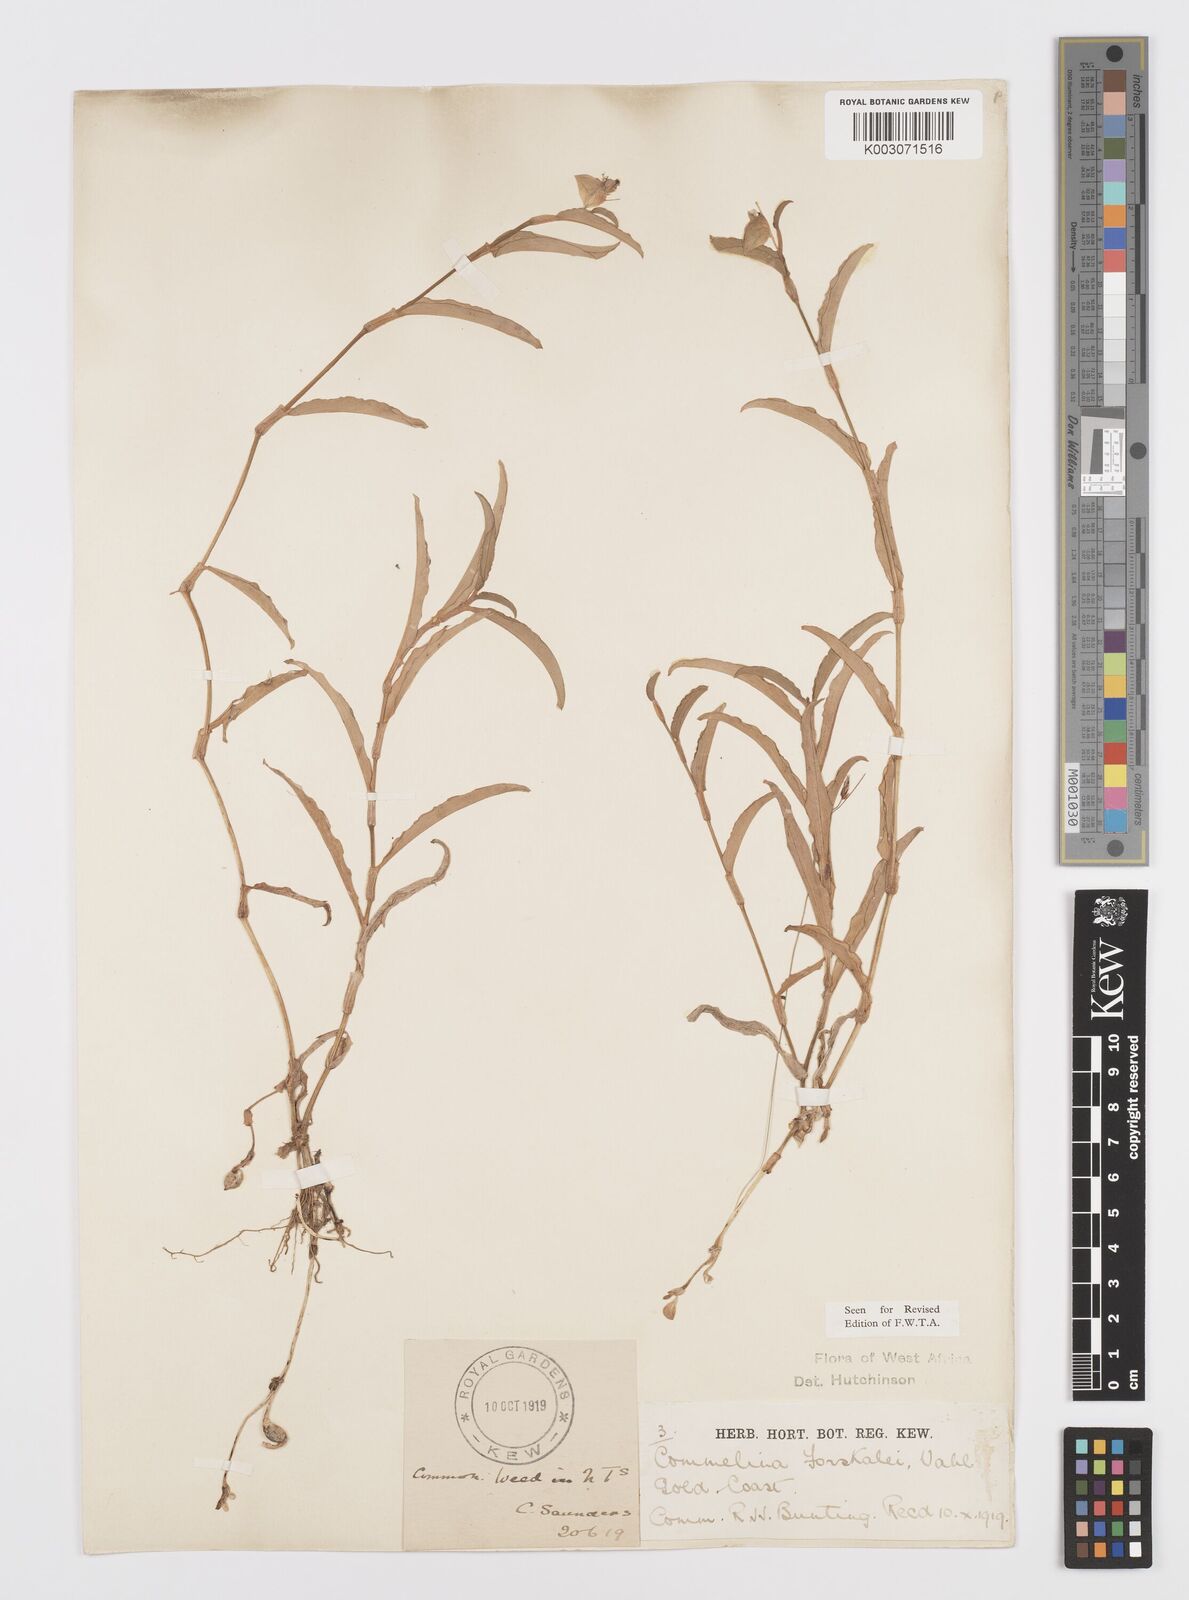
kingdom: Plantae
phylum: Tracheophyta
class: Liliopsida
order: Commelinales
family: Commelinaceae
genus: Commelina
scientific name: Commelina forskaolii
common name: Rat's ear
